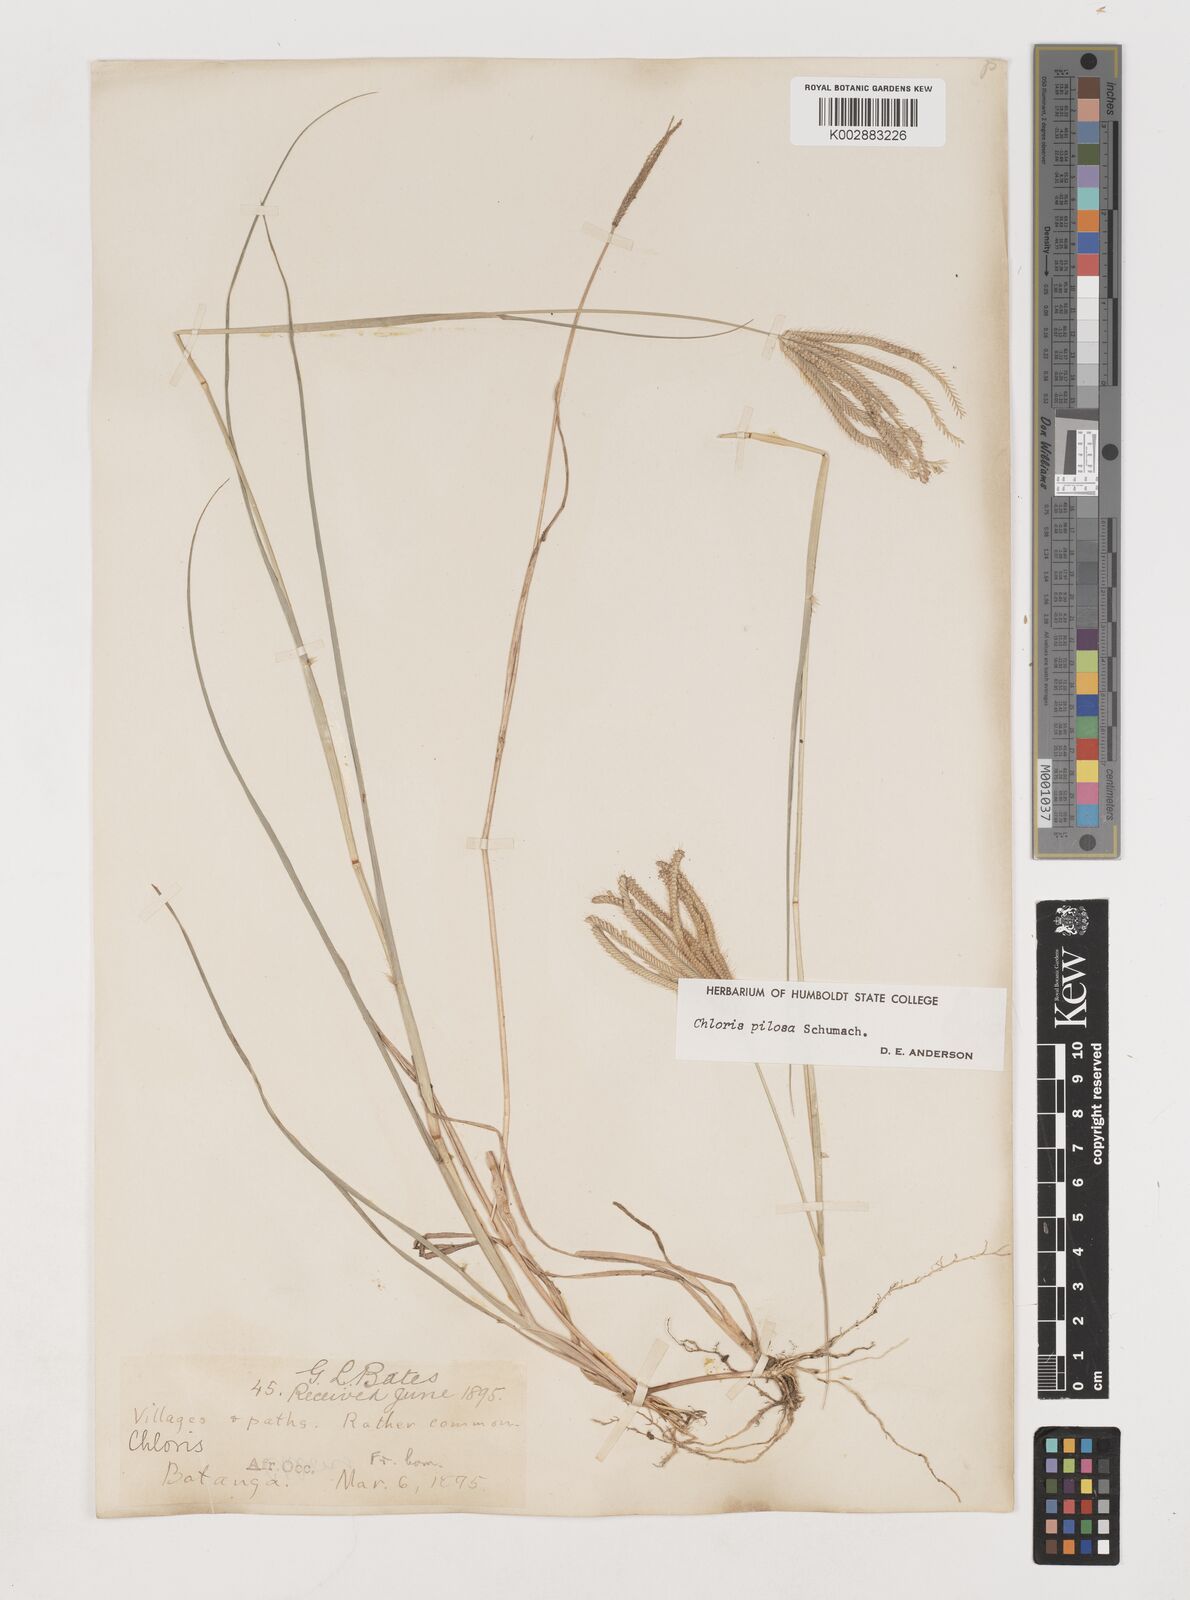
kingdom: Plantae
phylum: Tracheophyta
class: Liliopsida
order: Poales
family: Poaceae
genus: Chloris
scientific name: Chloris pilosa
